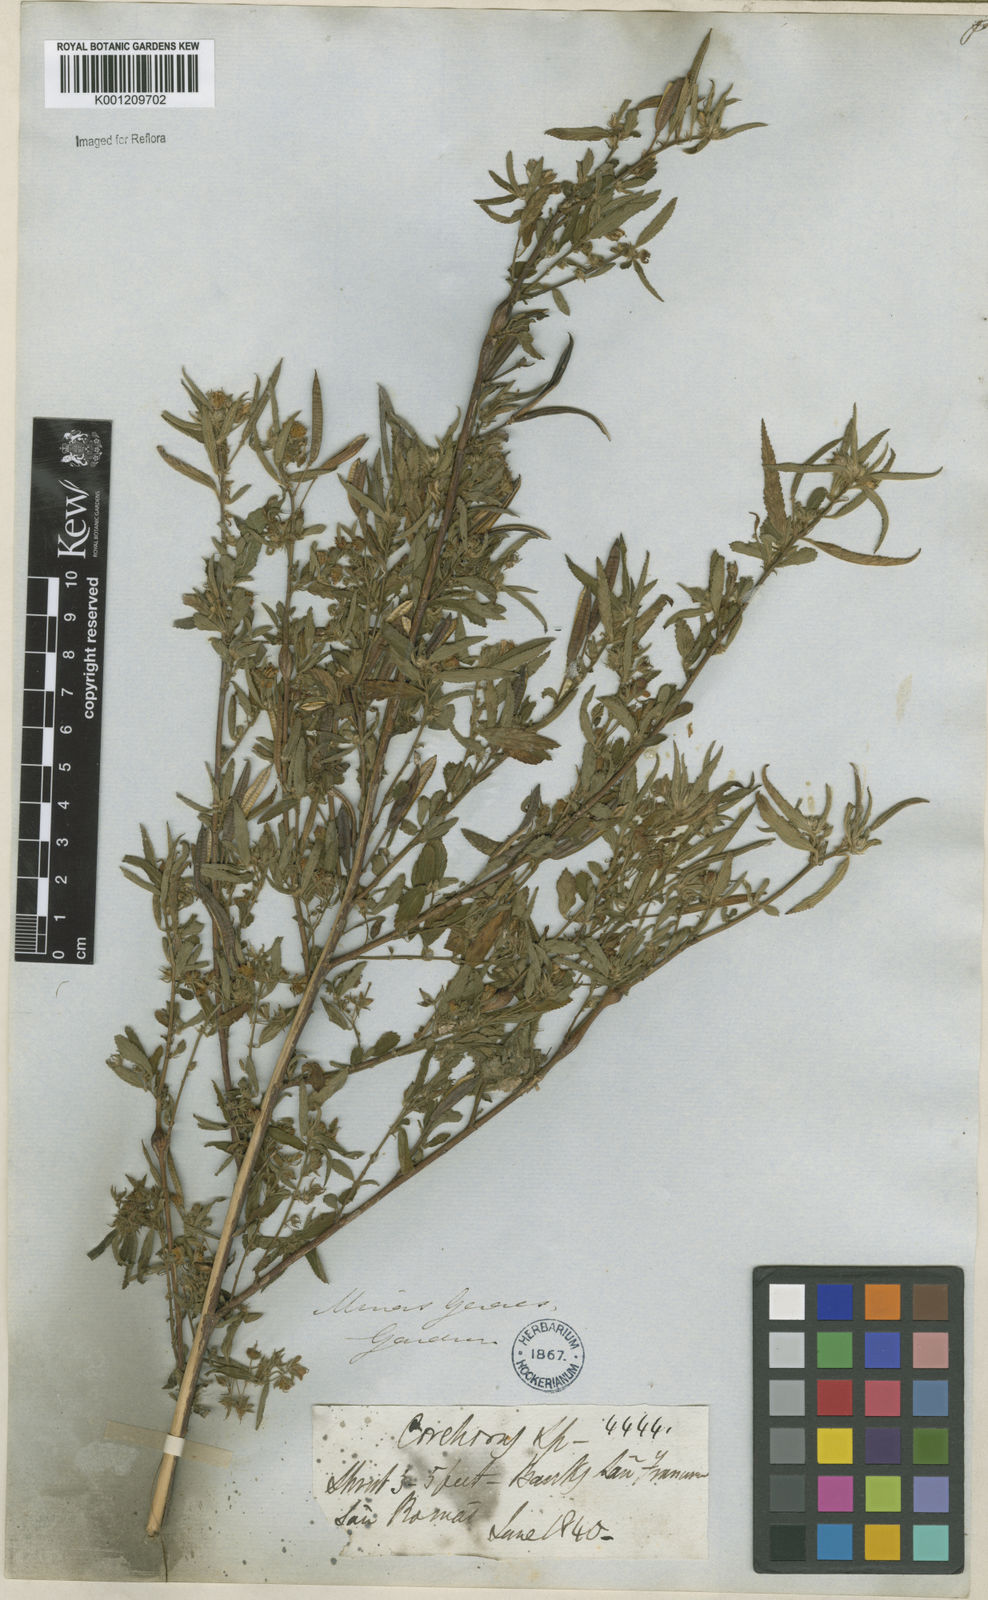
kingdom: Plantae
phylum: Tracheophyta
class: Magnoliopsida
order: Malvales
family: Malvaceae
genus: Corchorus
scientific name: Corchorus
